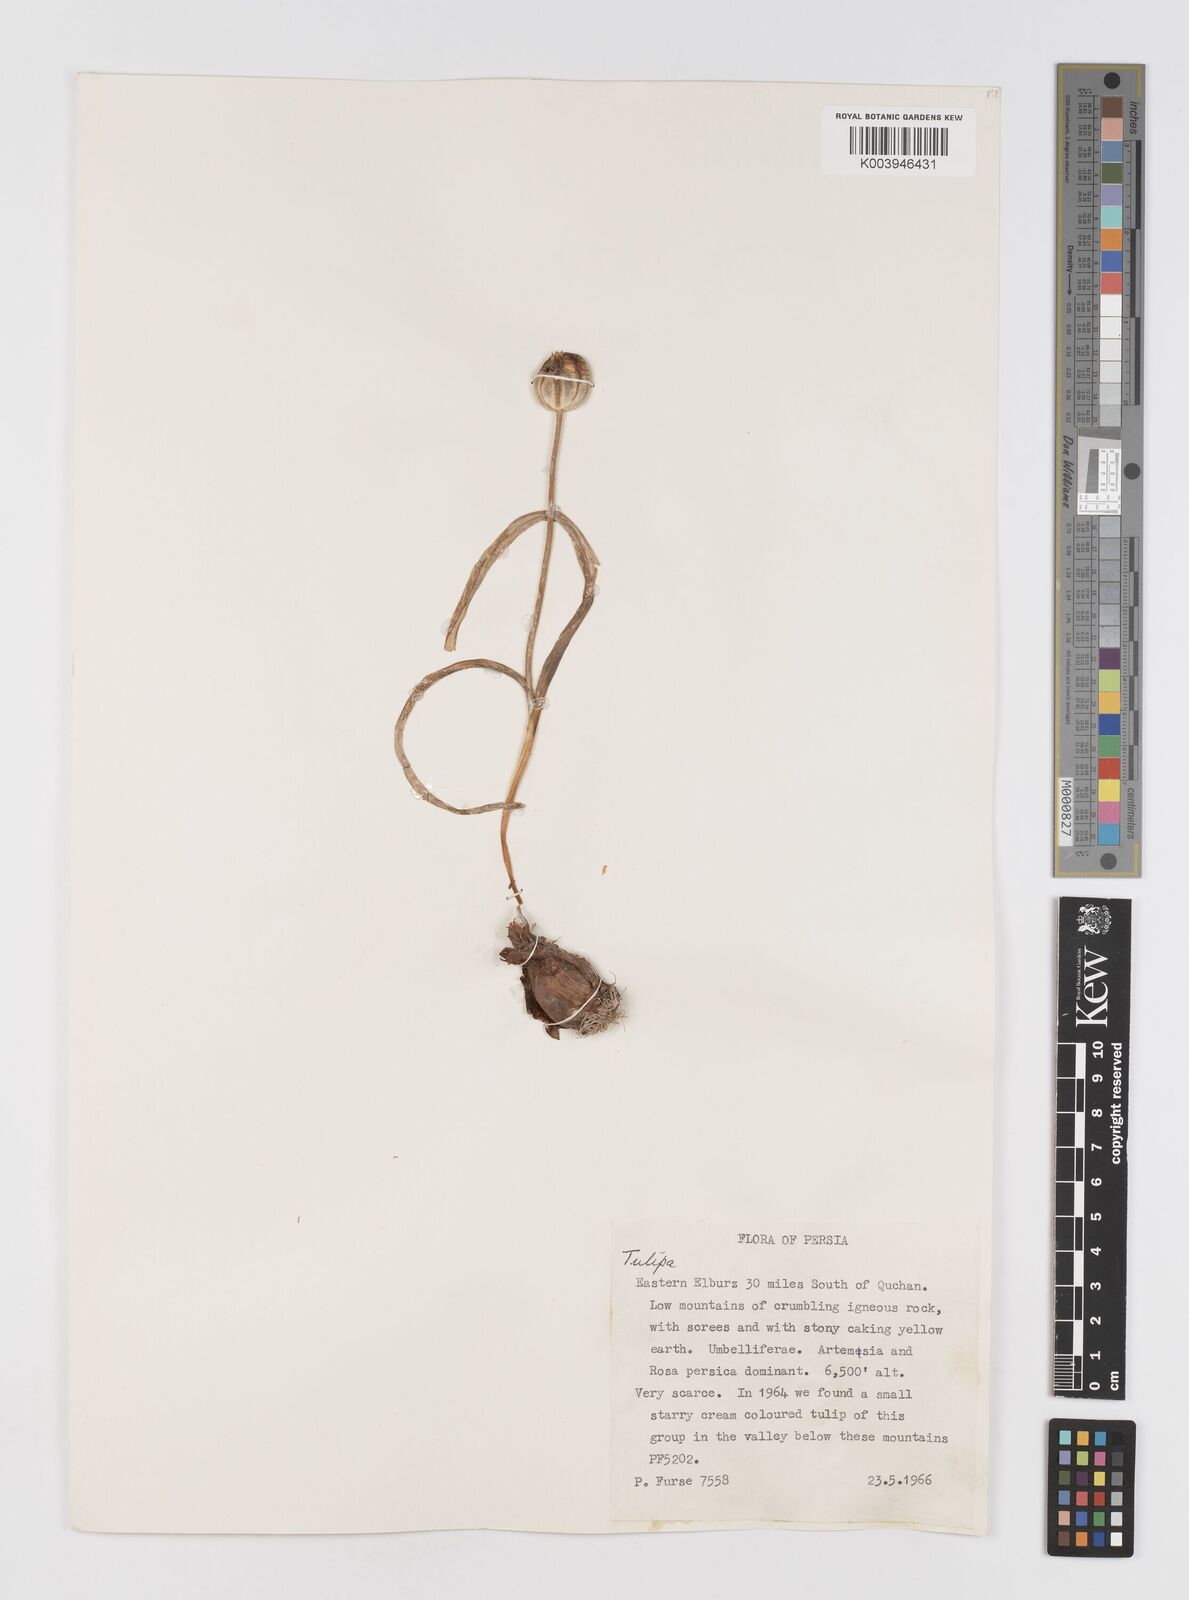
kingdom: Plantae
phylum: Tracheophyta
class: Liliopsida
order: Liliales
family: Liliaceae
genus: Tulipa
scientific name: Tulipa
